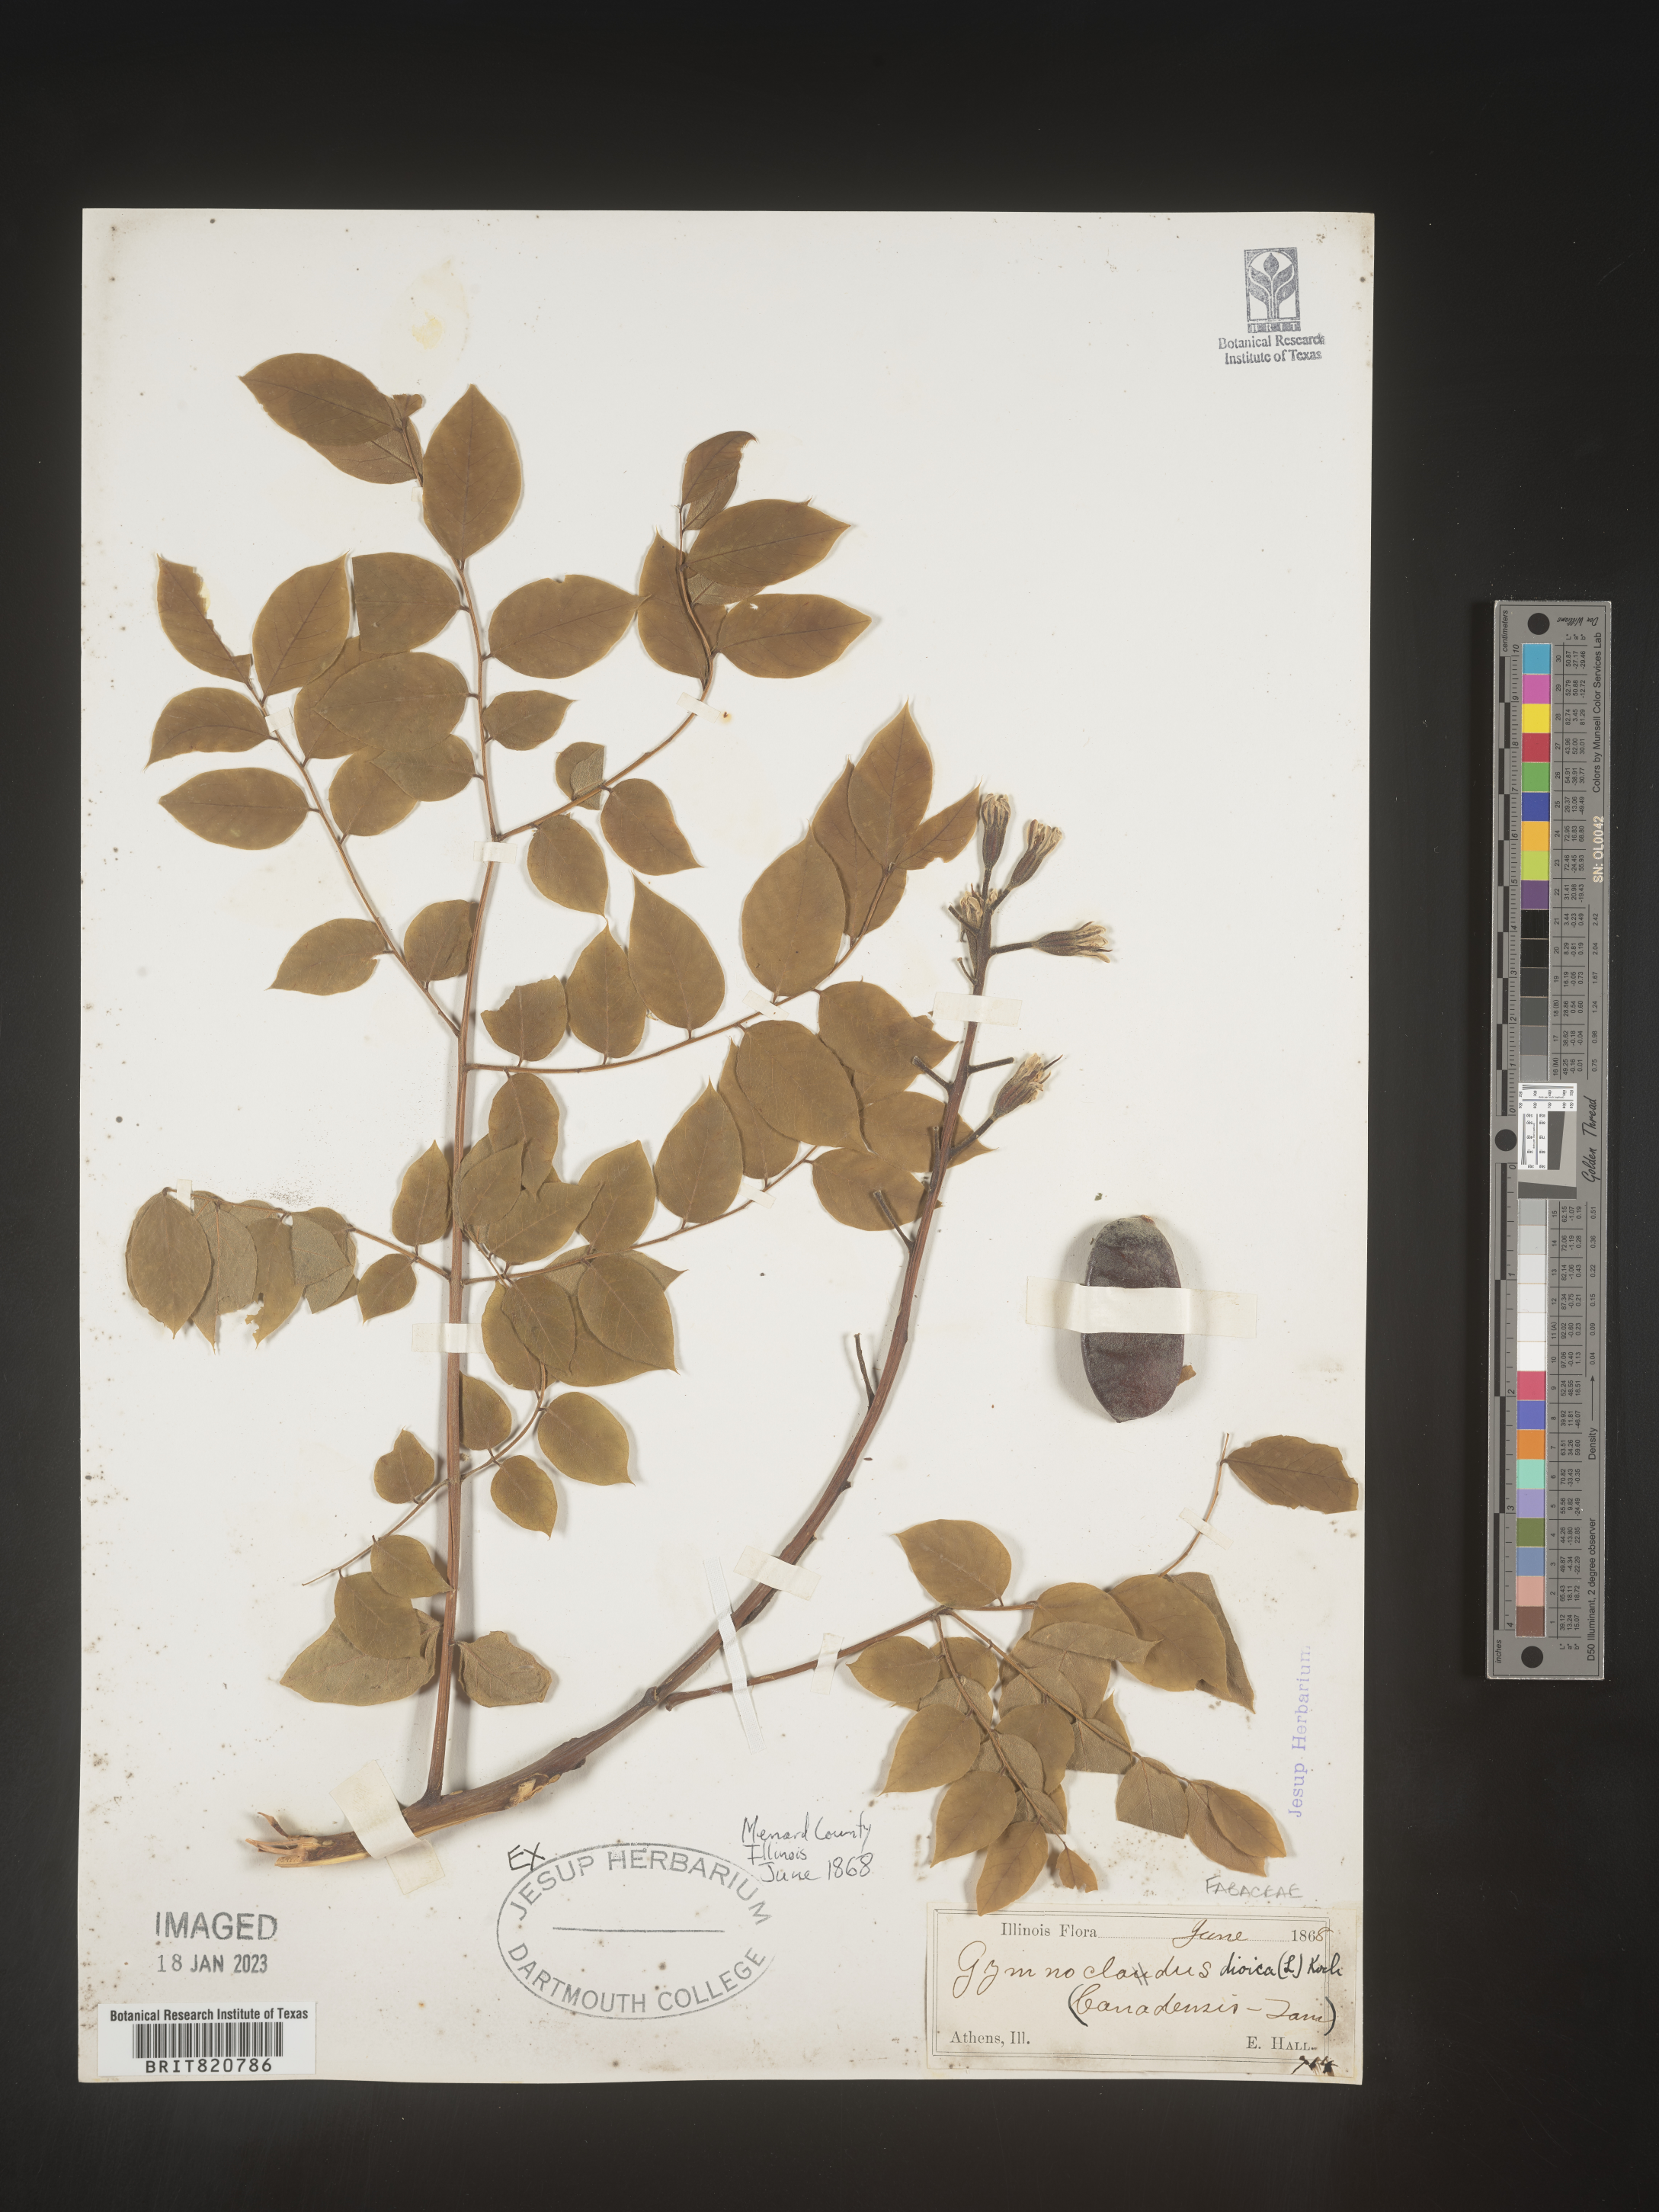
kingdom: Plantae
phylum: Tracheophyta
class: Magnoliopsida
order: Fabales
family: Fabaceae
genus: Gymnocladus
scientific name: Gymnocladus dioicus
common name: Kentucky coffee-tree
